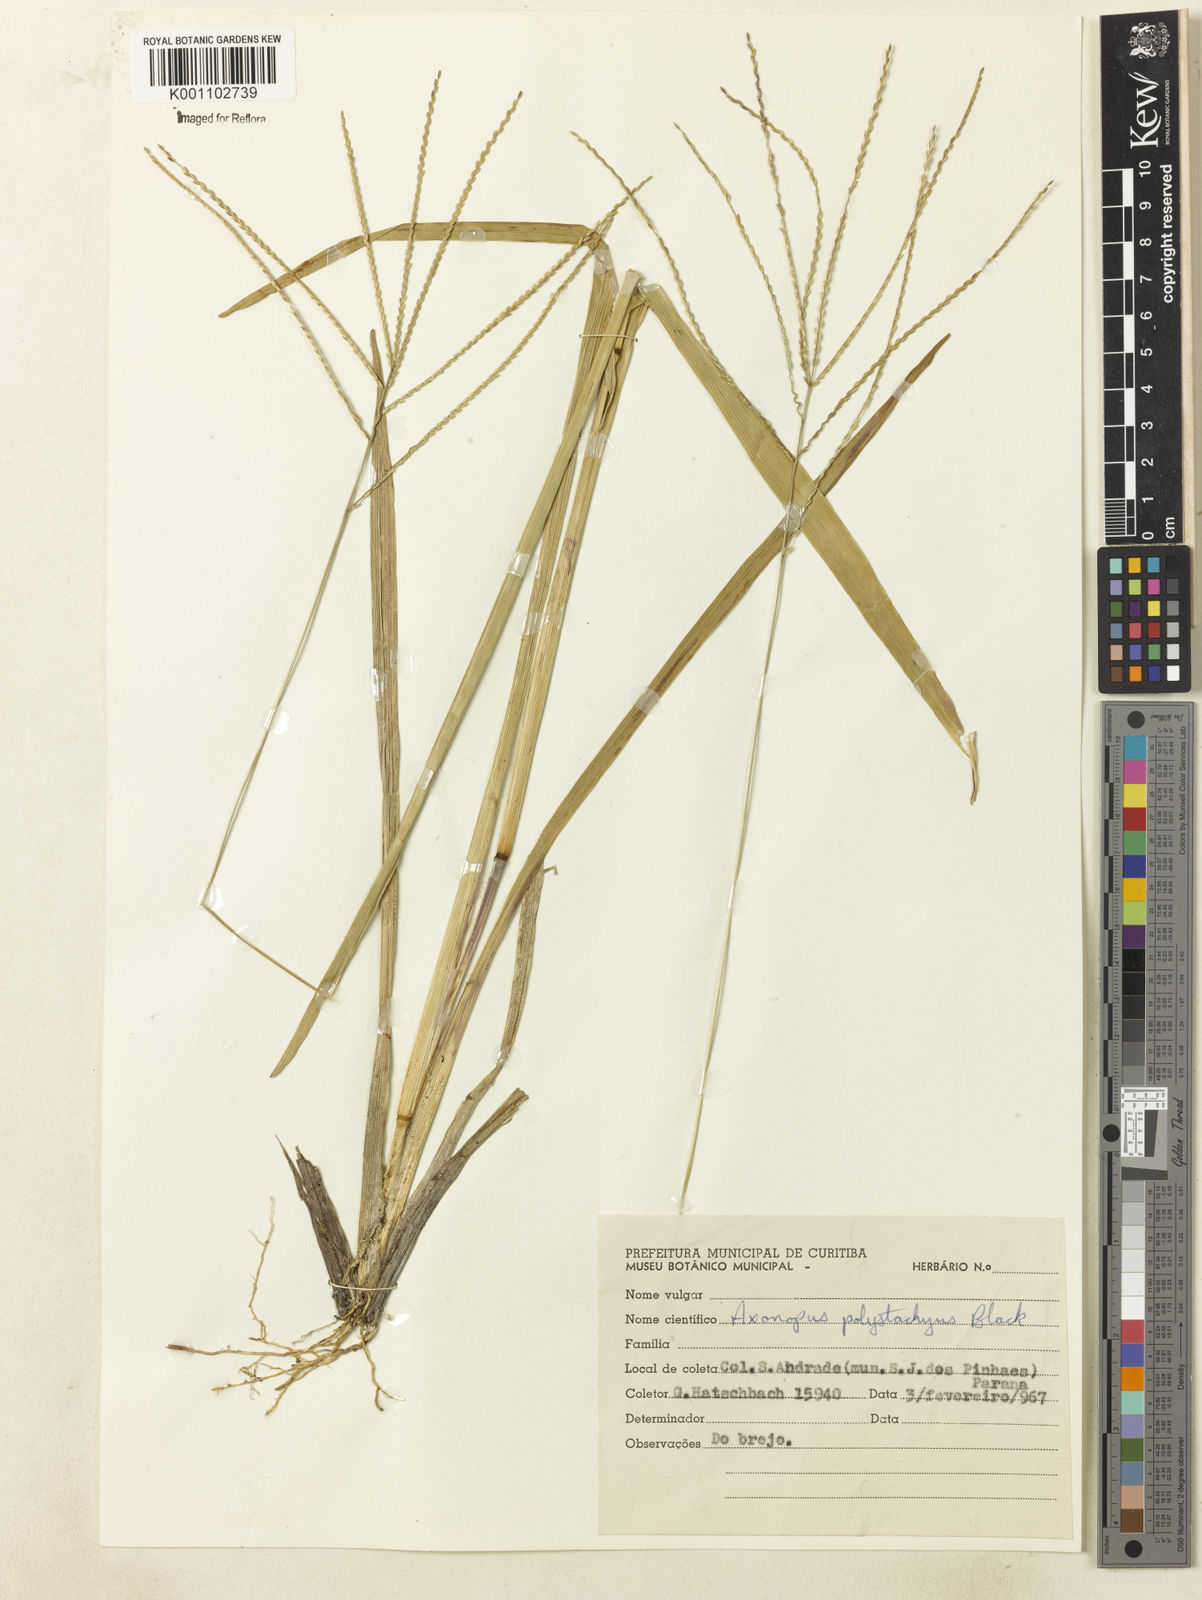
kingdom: Plantae
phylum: Tracheophyta
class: Liliopsida
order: Poales
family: Poaceae
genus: Axonopus
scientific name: Axonopus polystachyus
